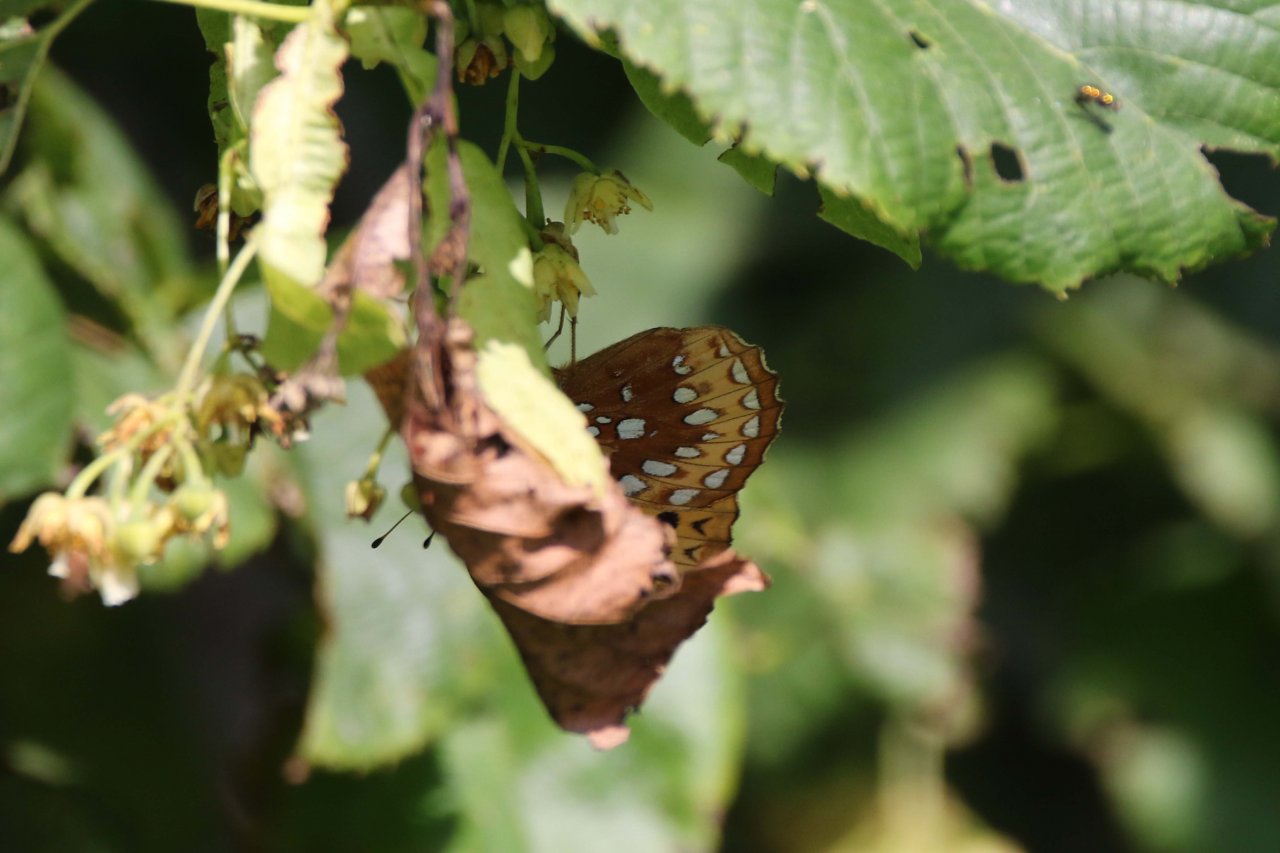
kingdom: Animalia
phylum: Arthropoda
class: Insecta
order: Lepidoptera
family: Nymphalidae
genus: Speyeria
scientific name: Speyeria cybele
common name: Great Spangled Fritillary
